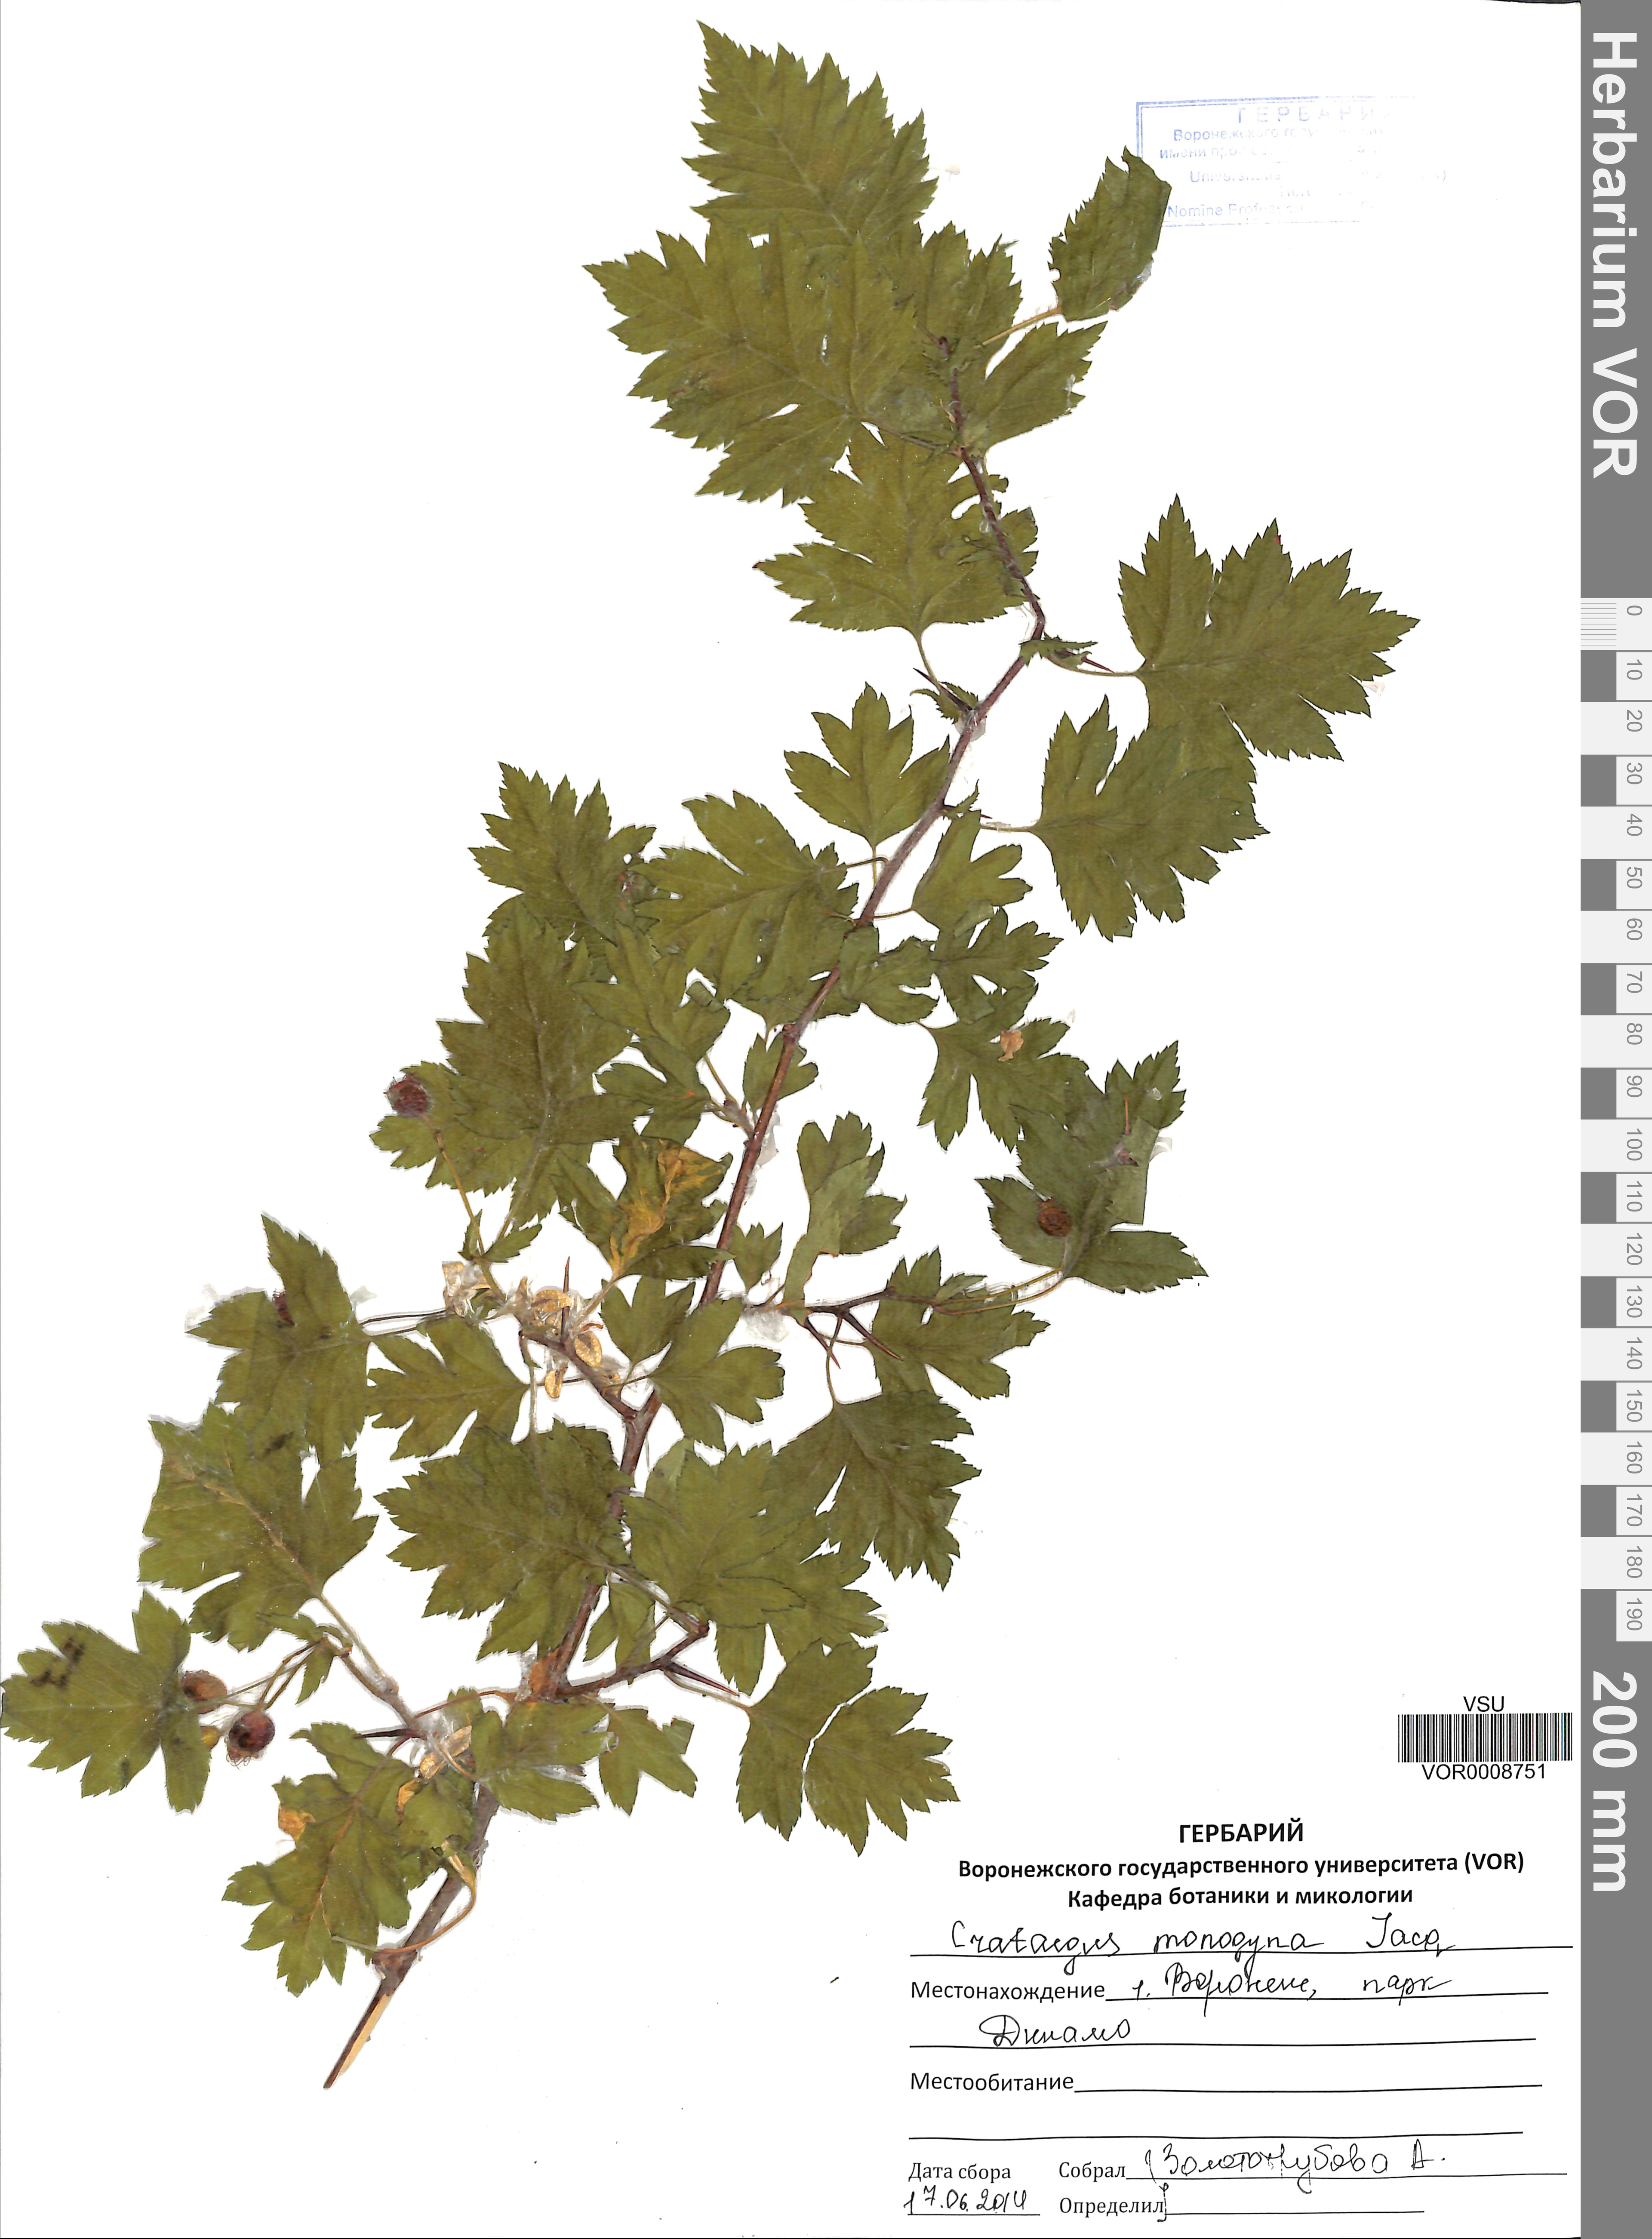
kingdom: Plantae
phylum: Tracheophyta
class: Magnoliopsida
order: Rosales
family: Rosaceae
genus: Crataegus
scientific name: Crataegus monogyna
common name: Hawthorn
